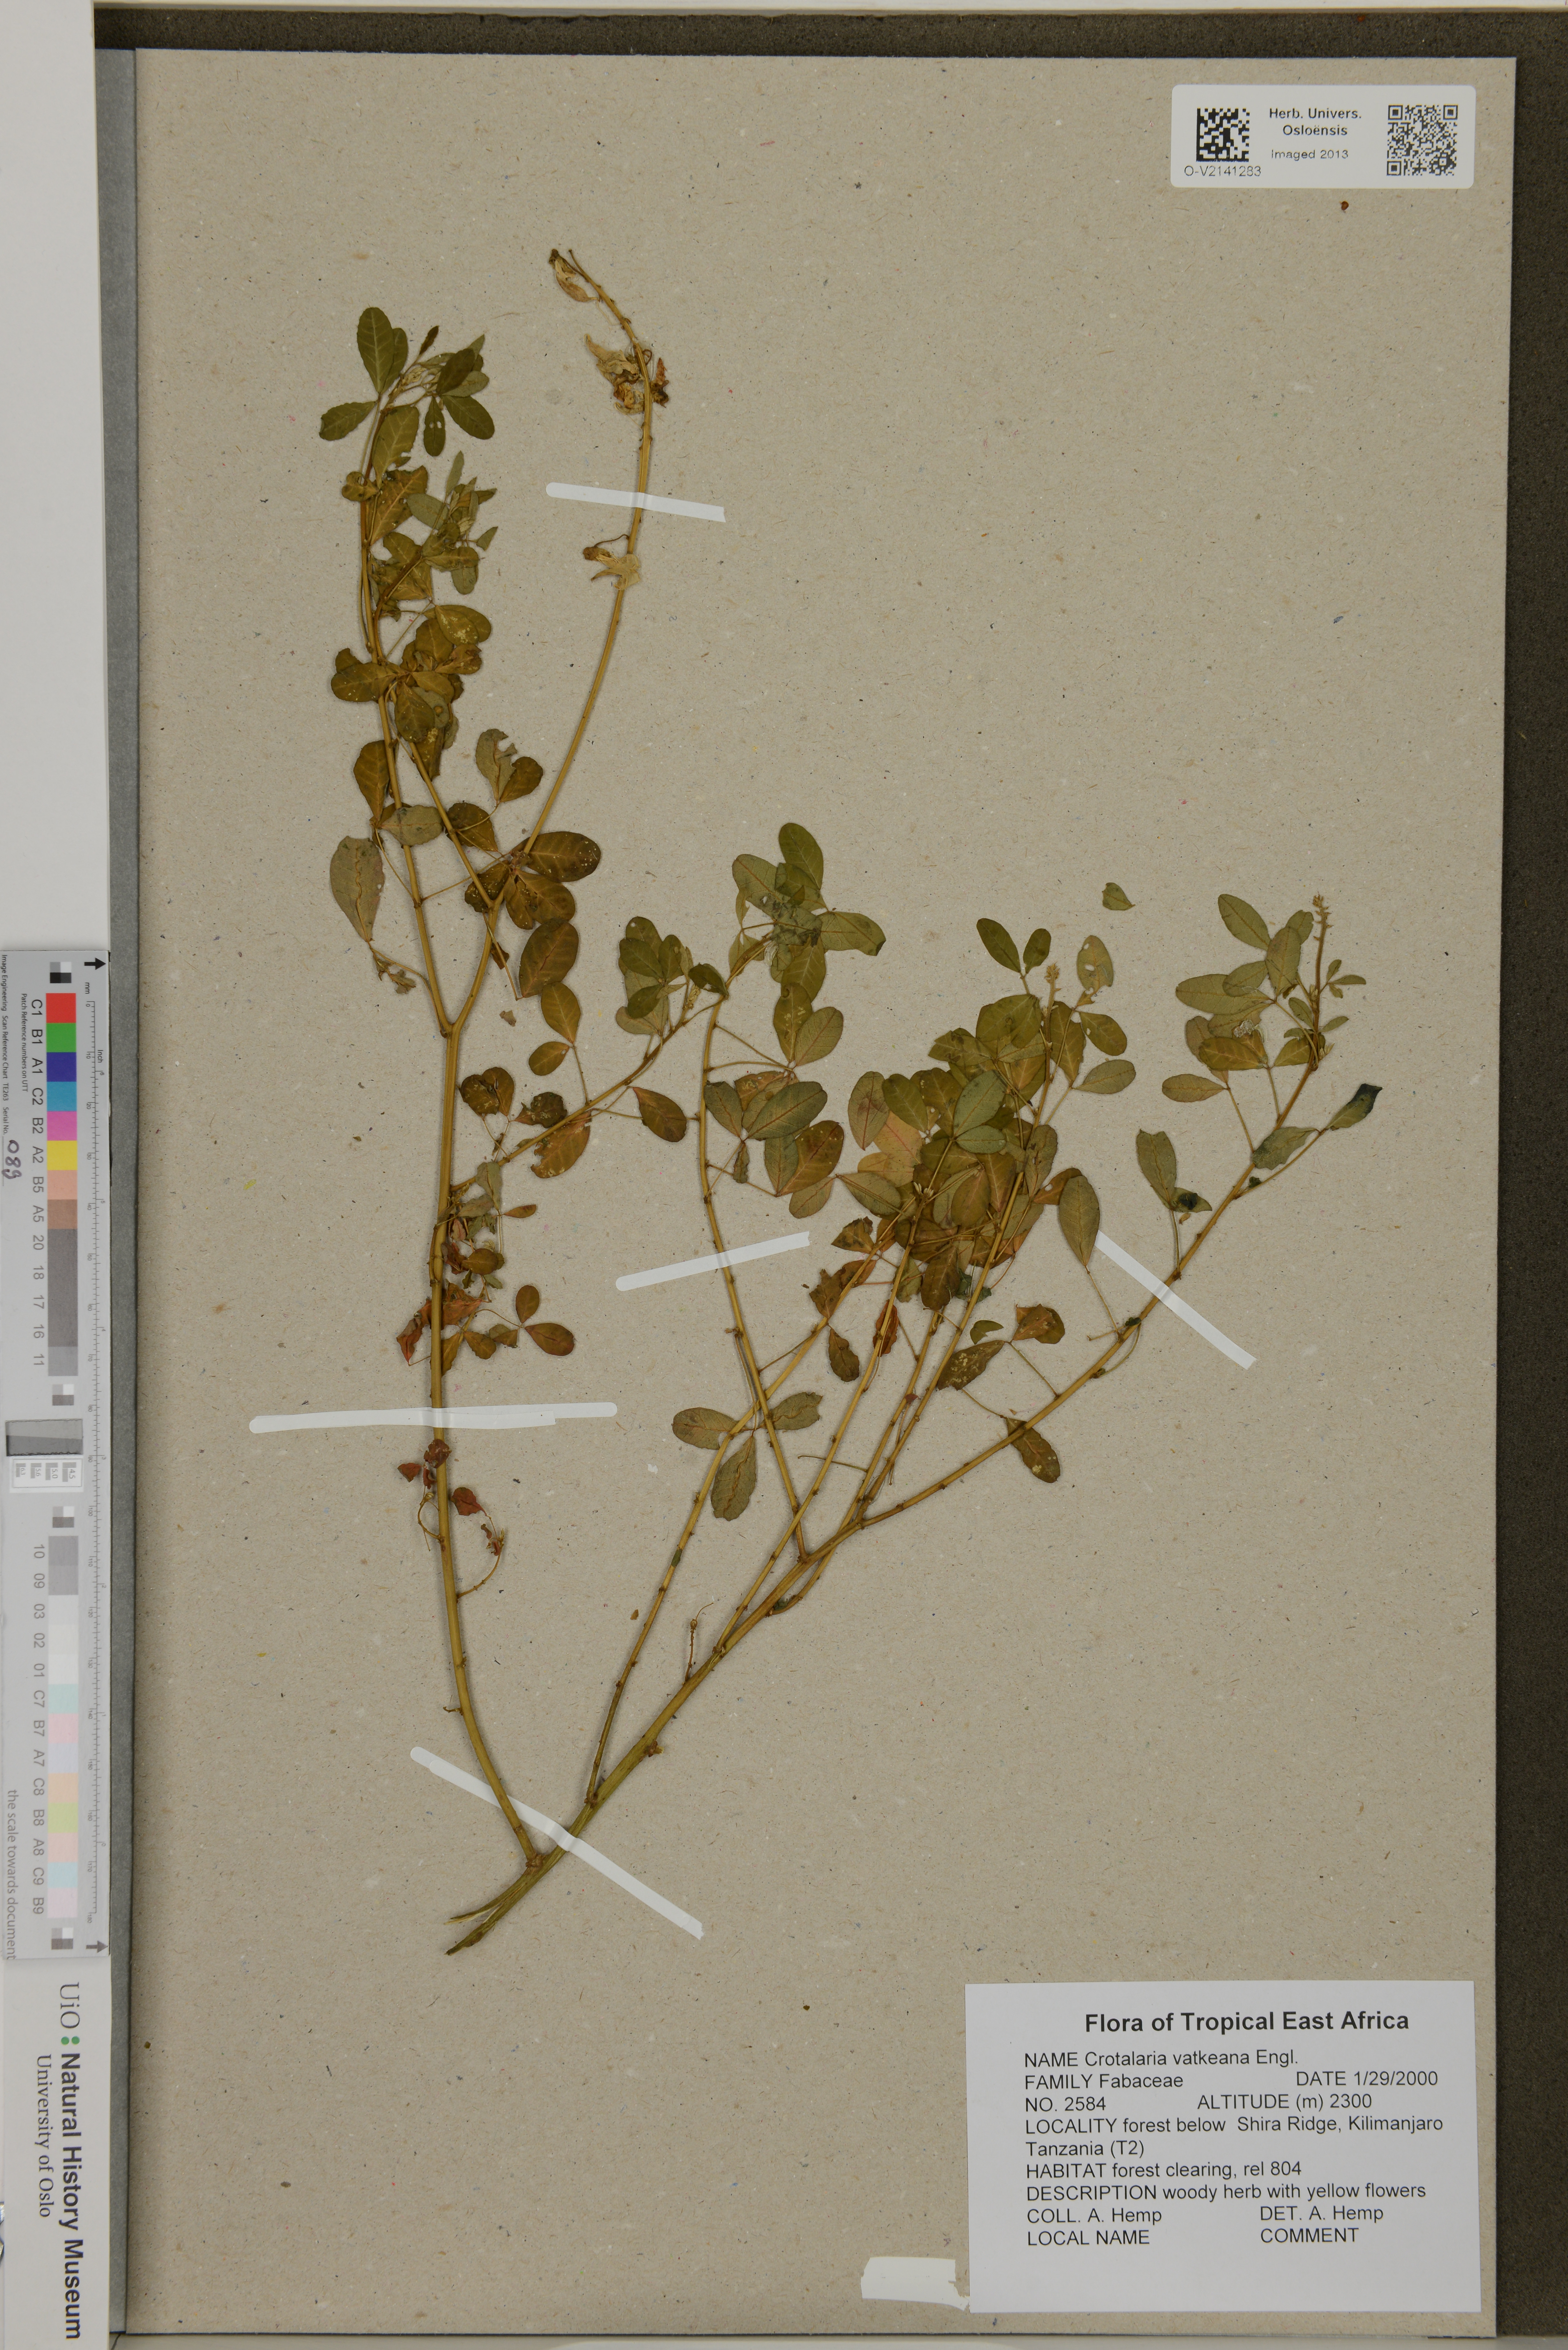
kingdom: Plantae
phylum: Tracheophyta
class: Magnoliopsida
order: Fabales
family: Fabaceae
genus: Crotalaria
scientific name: Crotalaria vatkeana
